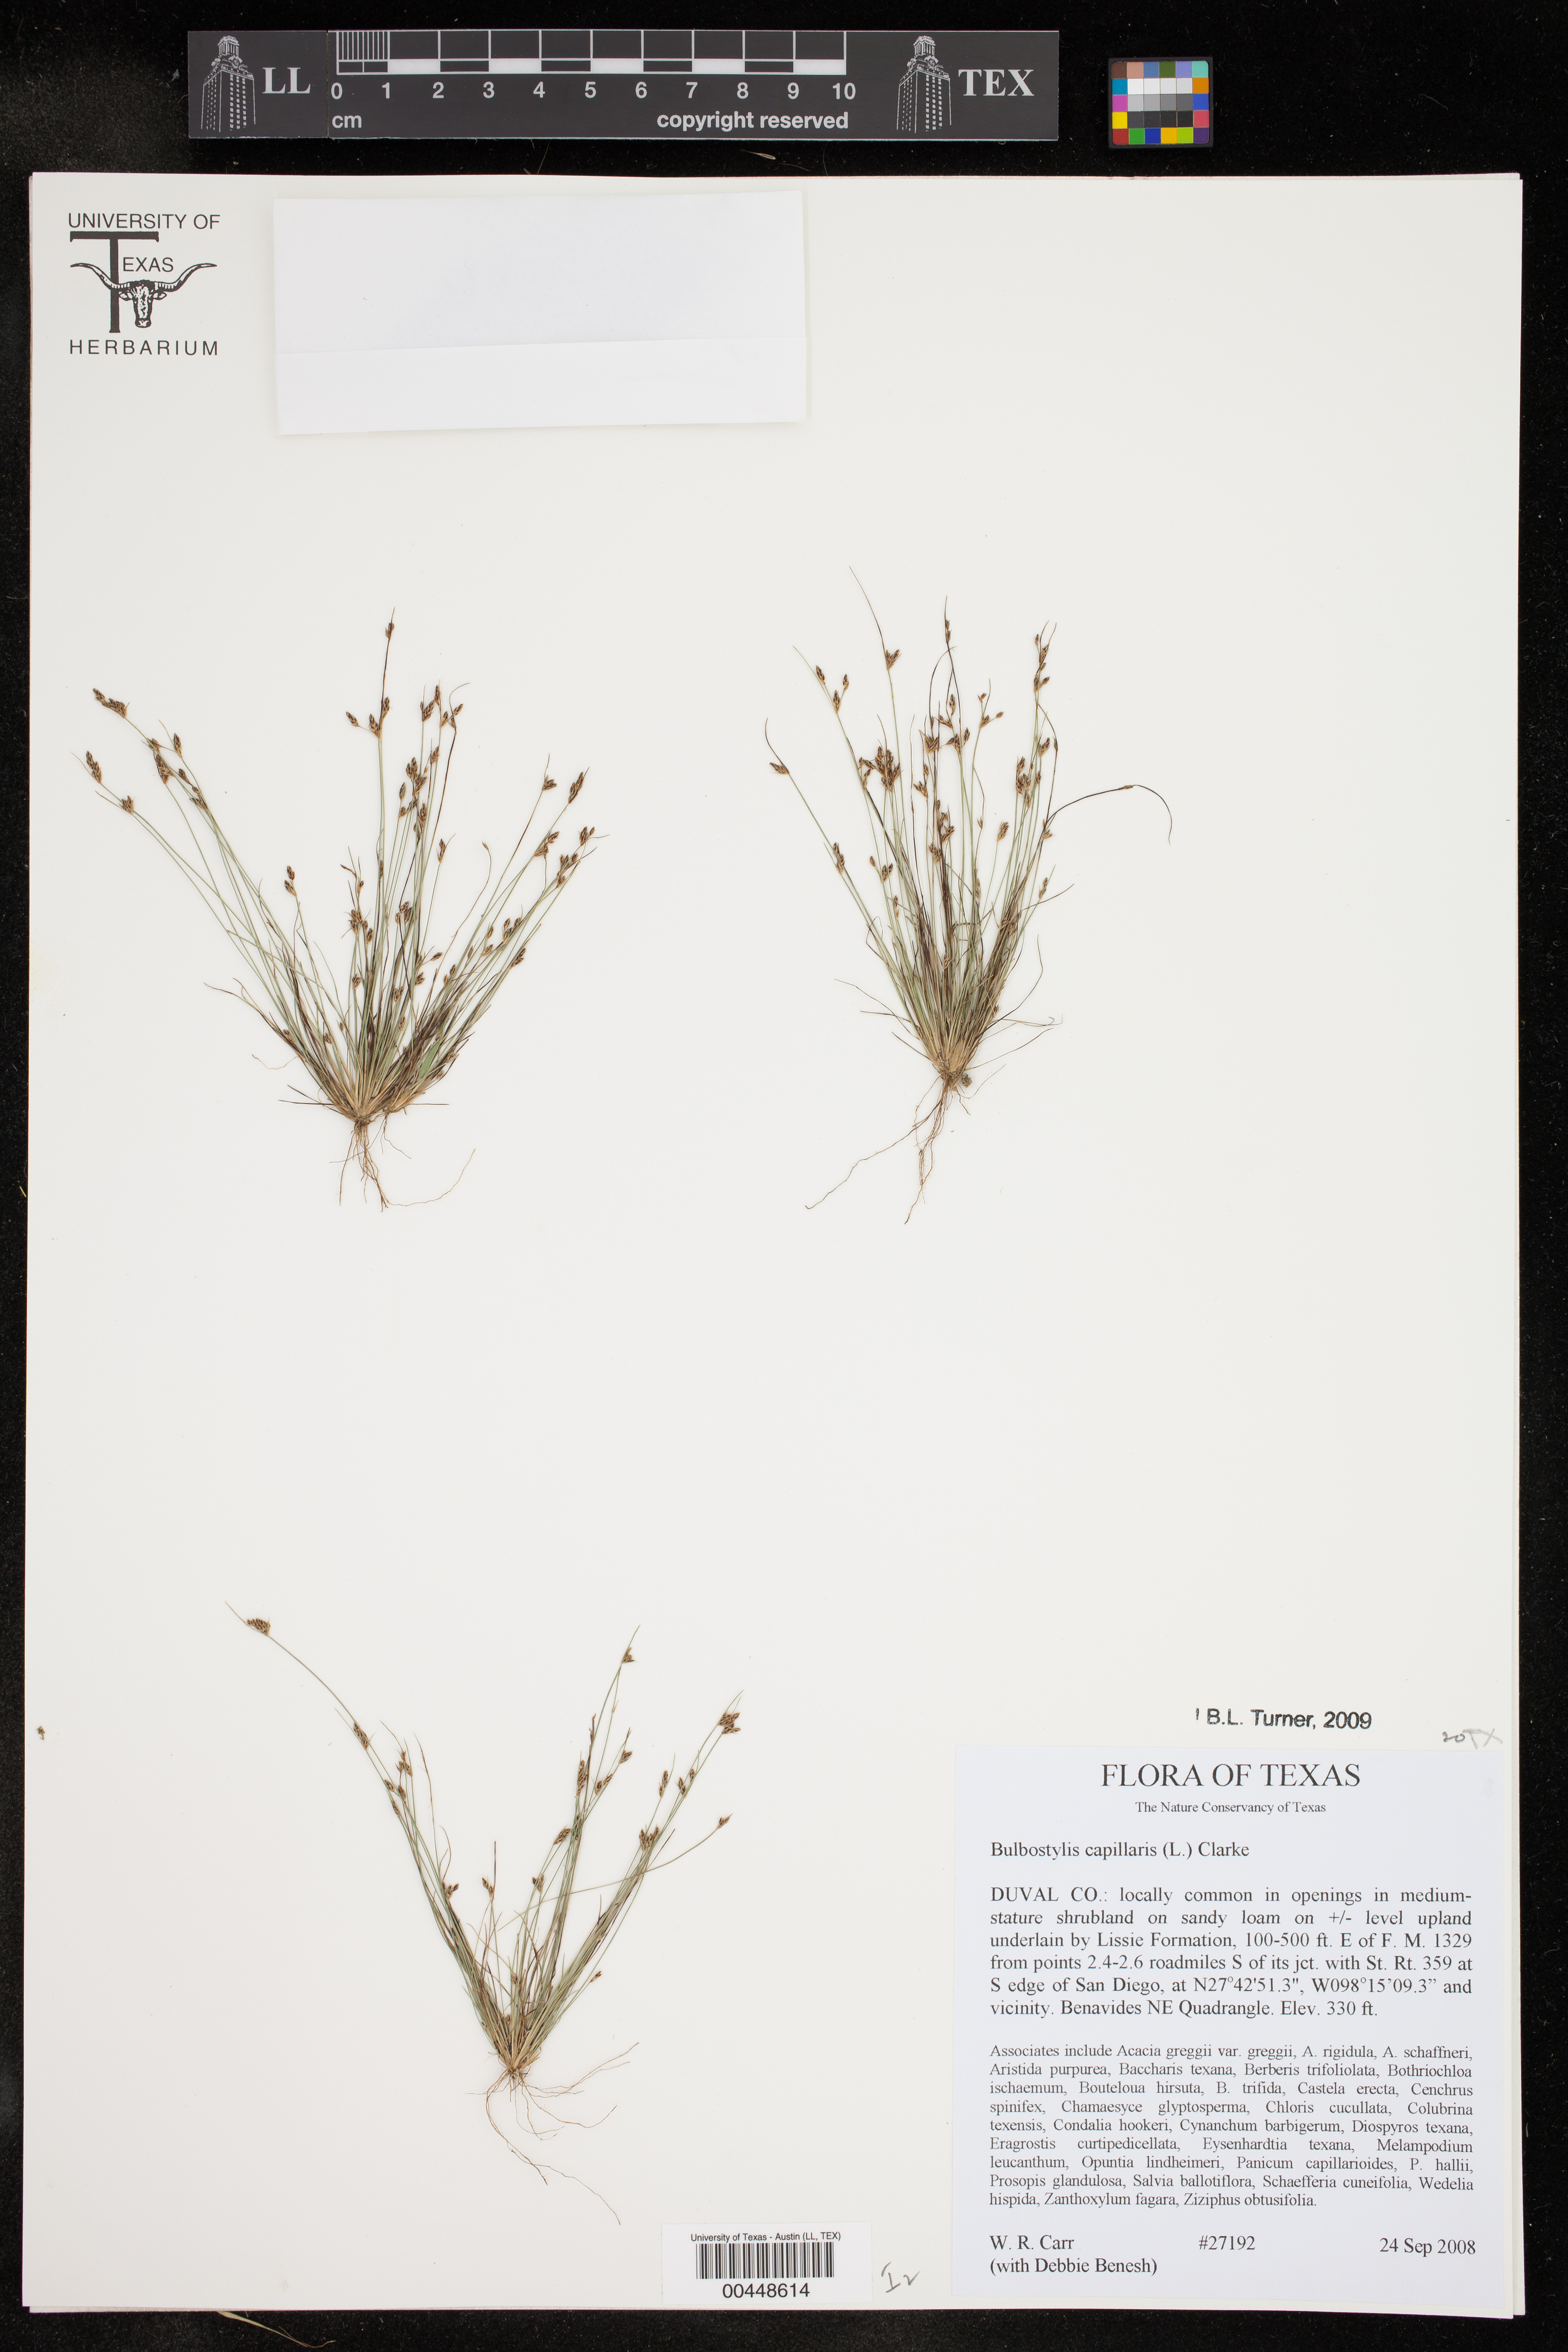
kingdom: Plantae
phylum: Tracheophyta
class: Liliopsida
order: Poales
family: Cyperaceae
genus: Bulbostylis
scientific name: Bulbostylis capillaris
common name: Densetuft hairsedge
